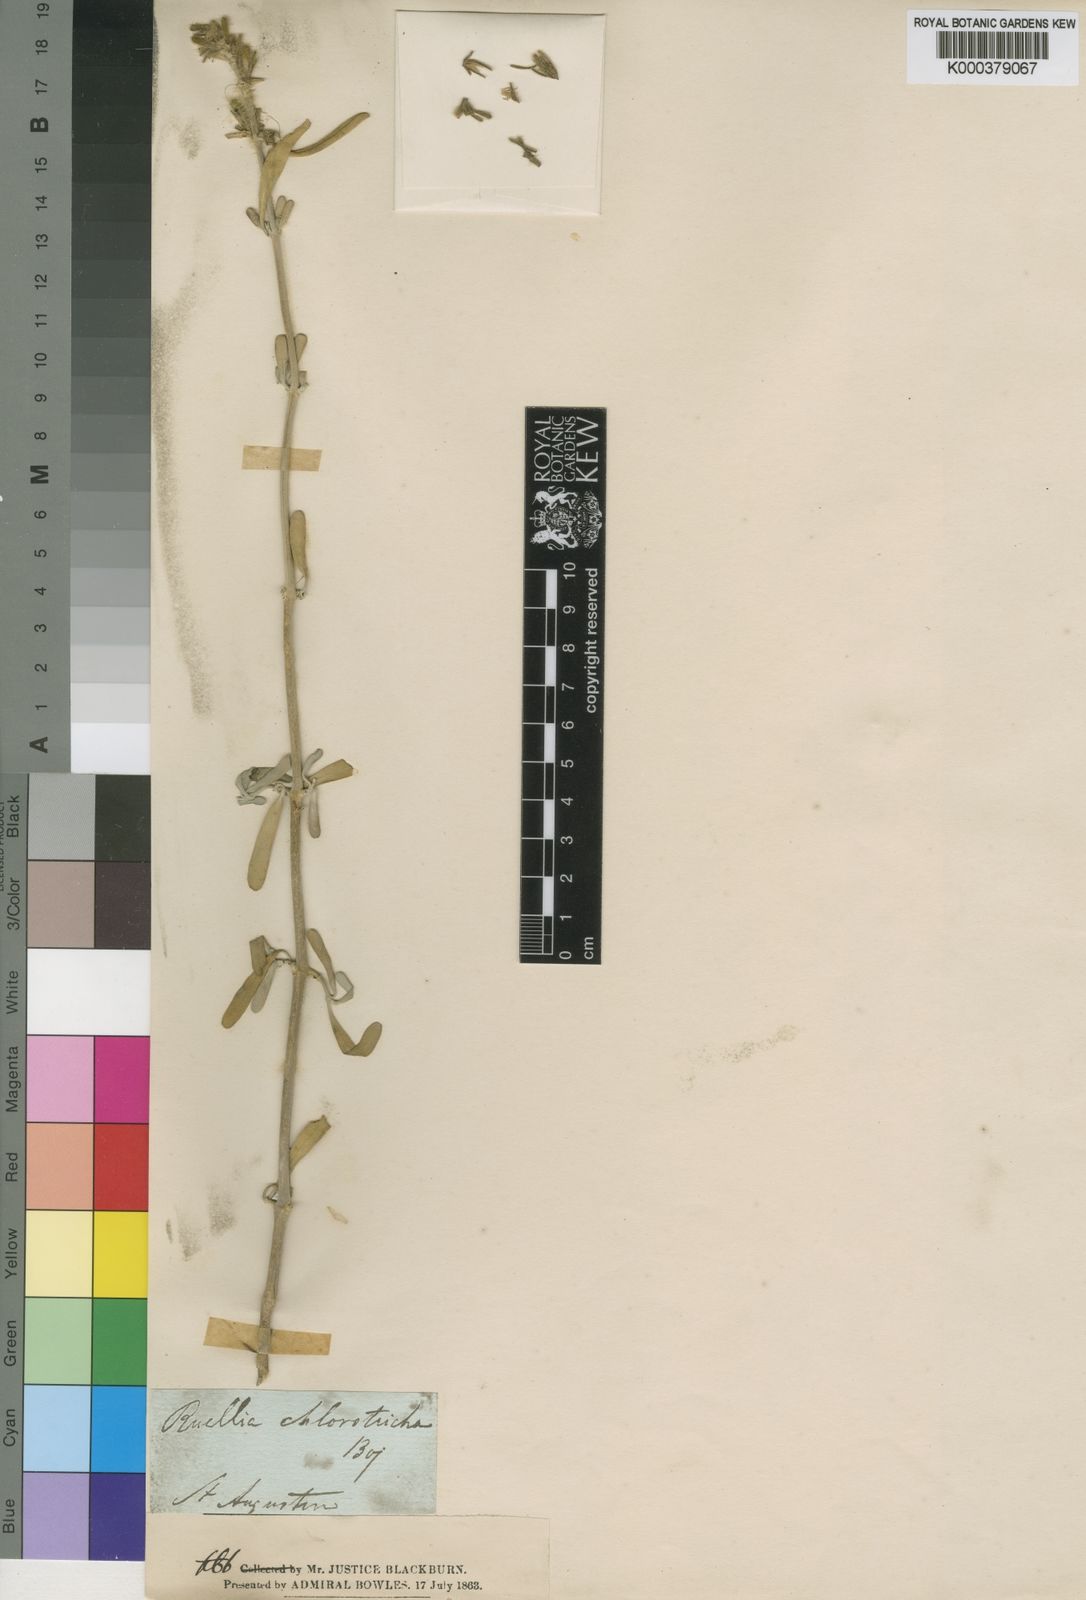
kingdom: Plantae
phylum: Tracheophyta
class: Magnoliopsida
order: Lamiales
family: Acanthaceae
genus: Hypoestes
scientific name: Hypoestes chlorotricha
